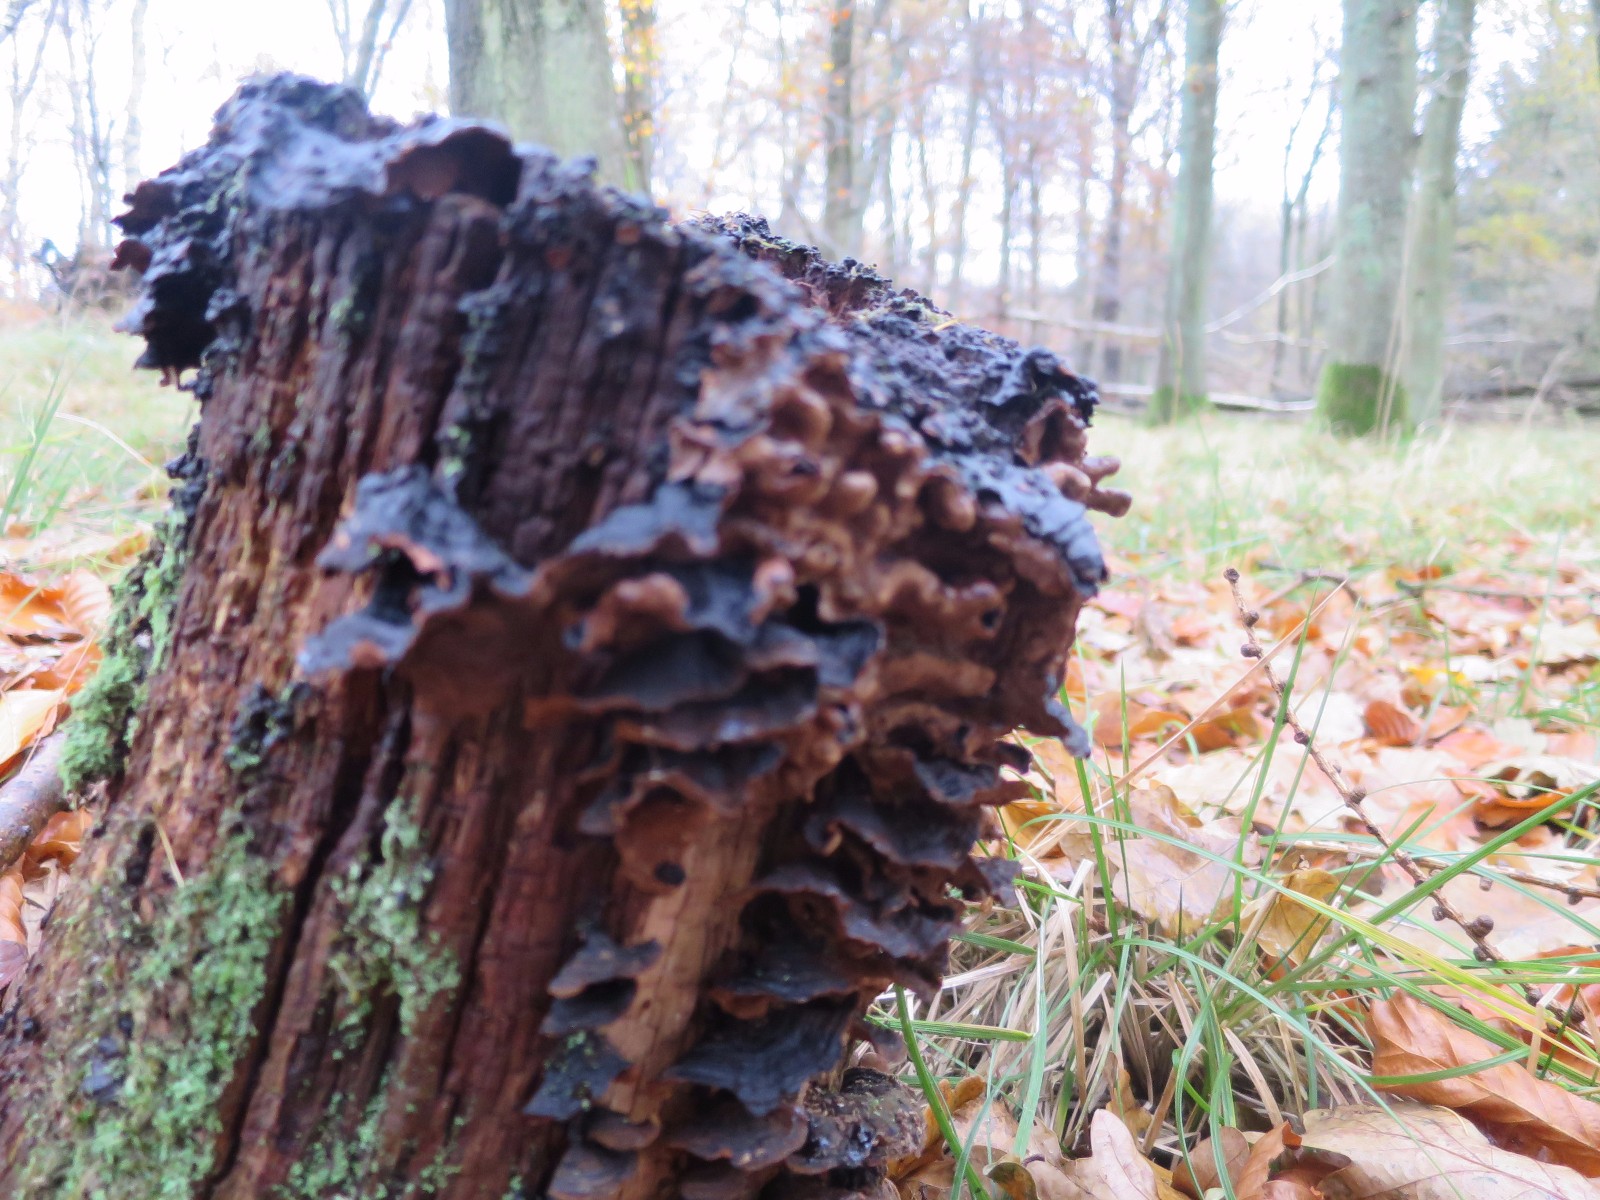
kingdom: Fungi
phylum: Basidiomycota
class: Agaricomycetes
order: Hymenochaetales
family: Hymenochaetaceae
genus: Hymenochaete
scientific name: Hymenochaete rubiginosa
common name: stiv ruslædersvamp
